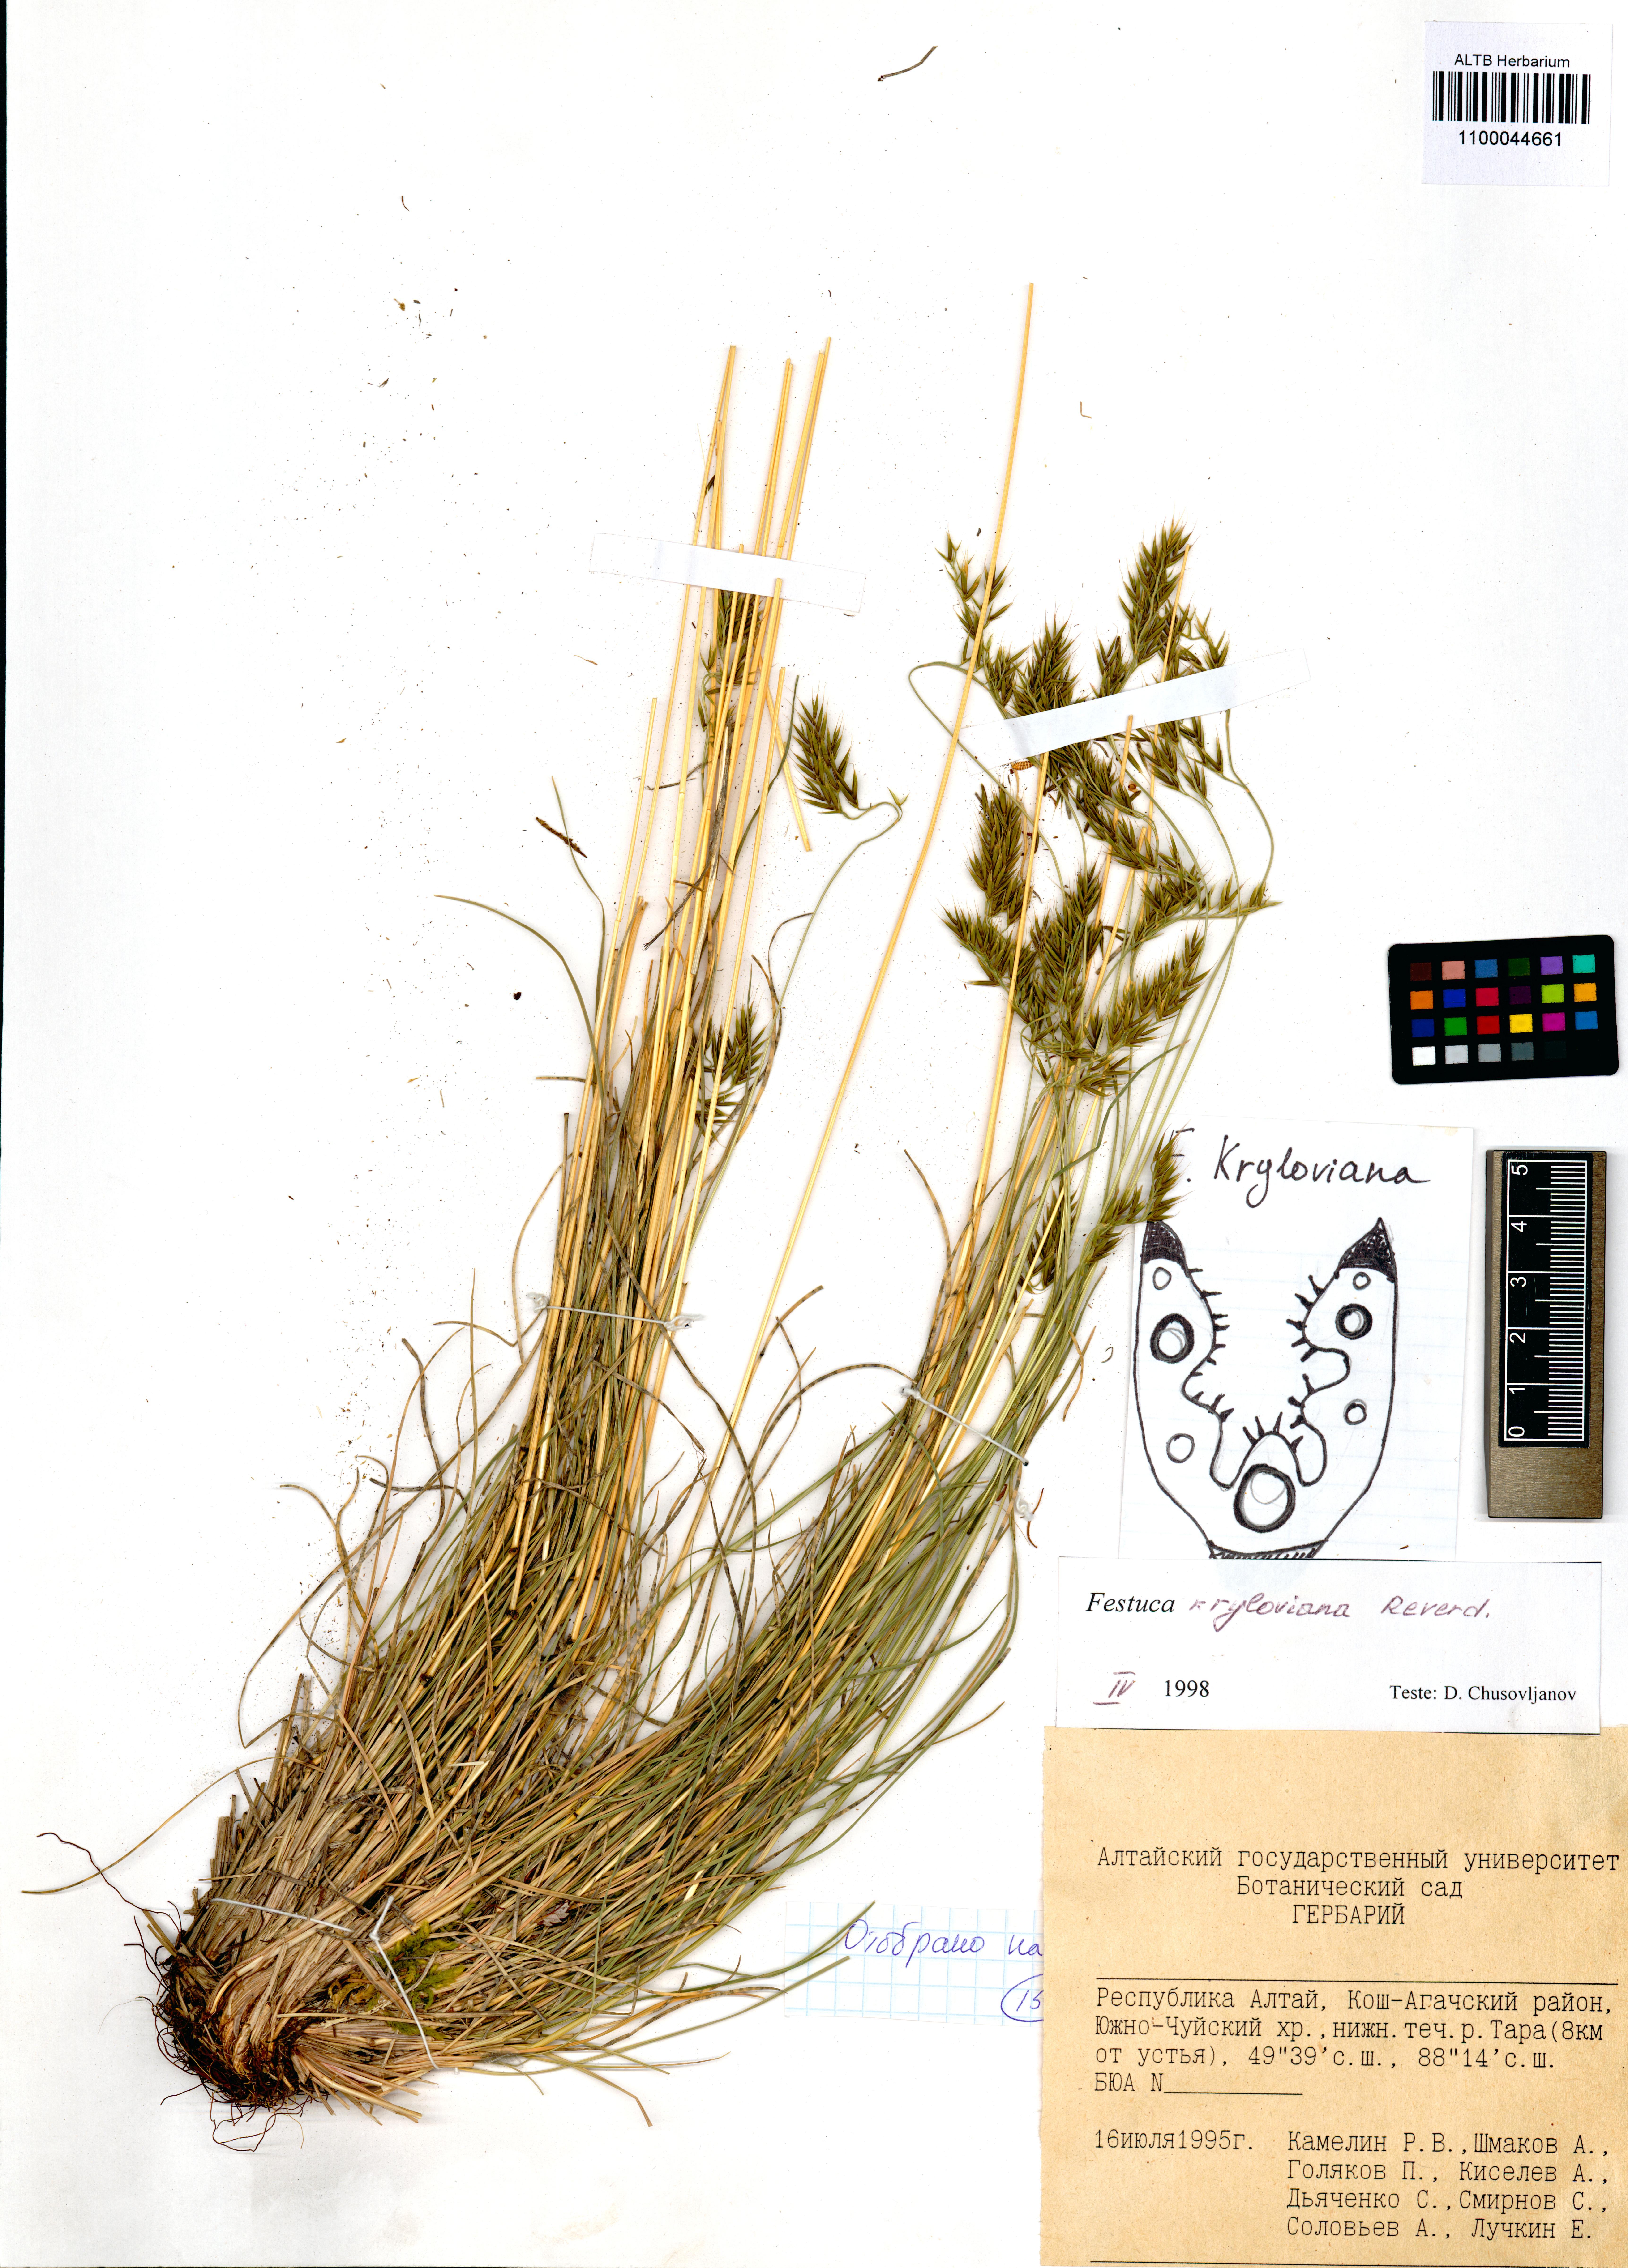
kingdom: Plantae
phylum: Tracheophyta
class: Liliopsida
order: Poales
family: Poaceae
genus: Festuca
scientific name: Festuca kryloviana
